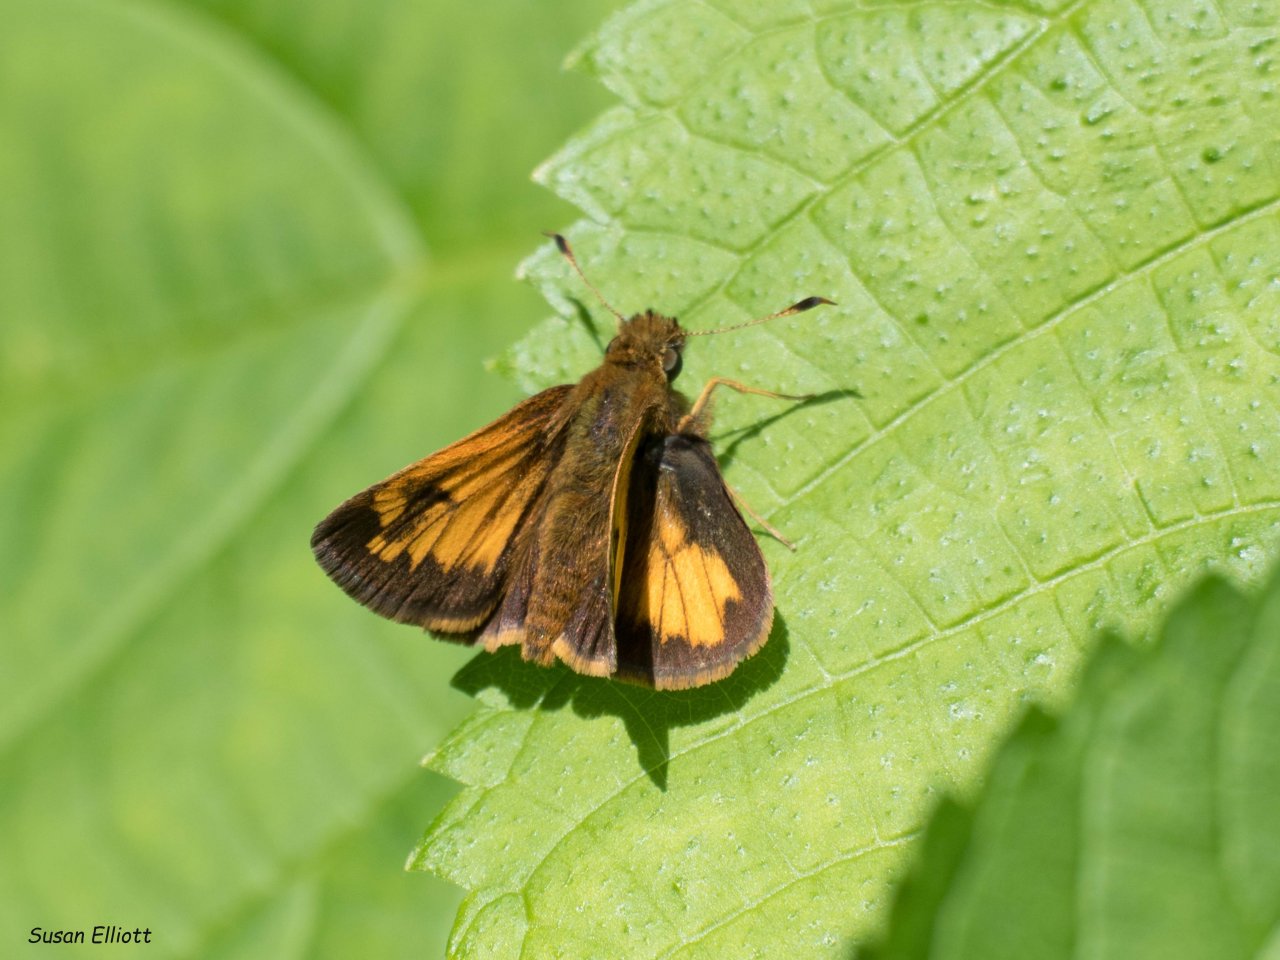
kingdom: Animalia
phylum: Arthropoda
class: Insecta
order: Lepidoptera
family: Hesperiidae
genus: Lon
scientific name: Lon hobomok
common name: Hobomok Skipper
